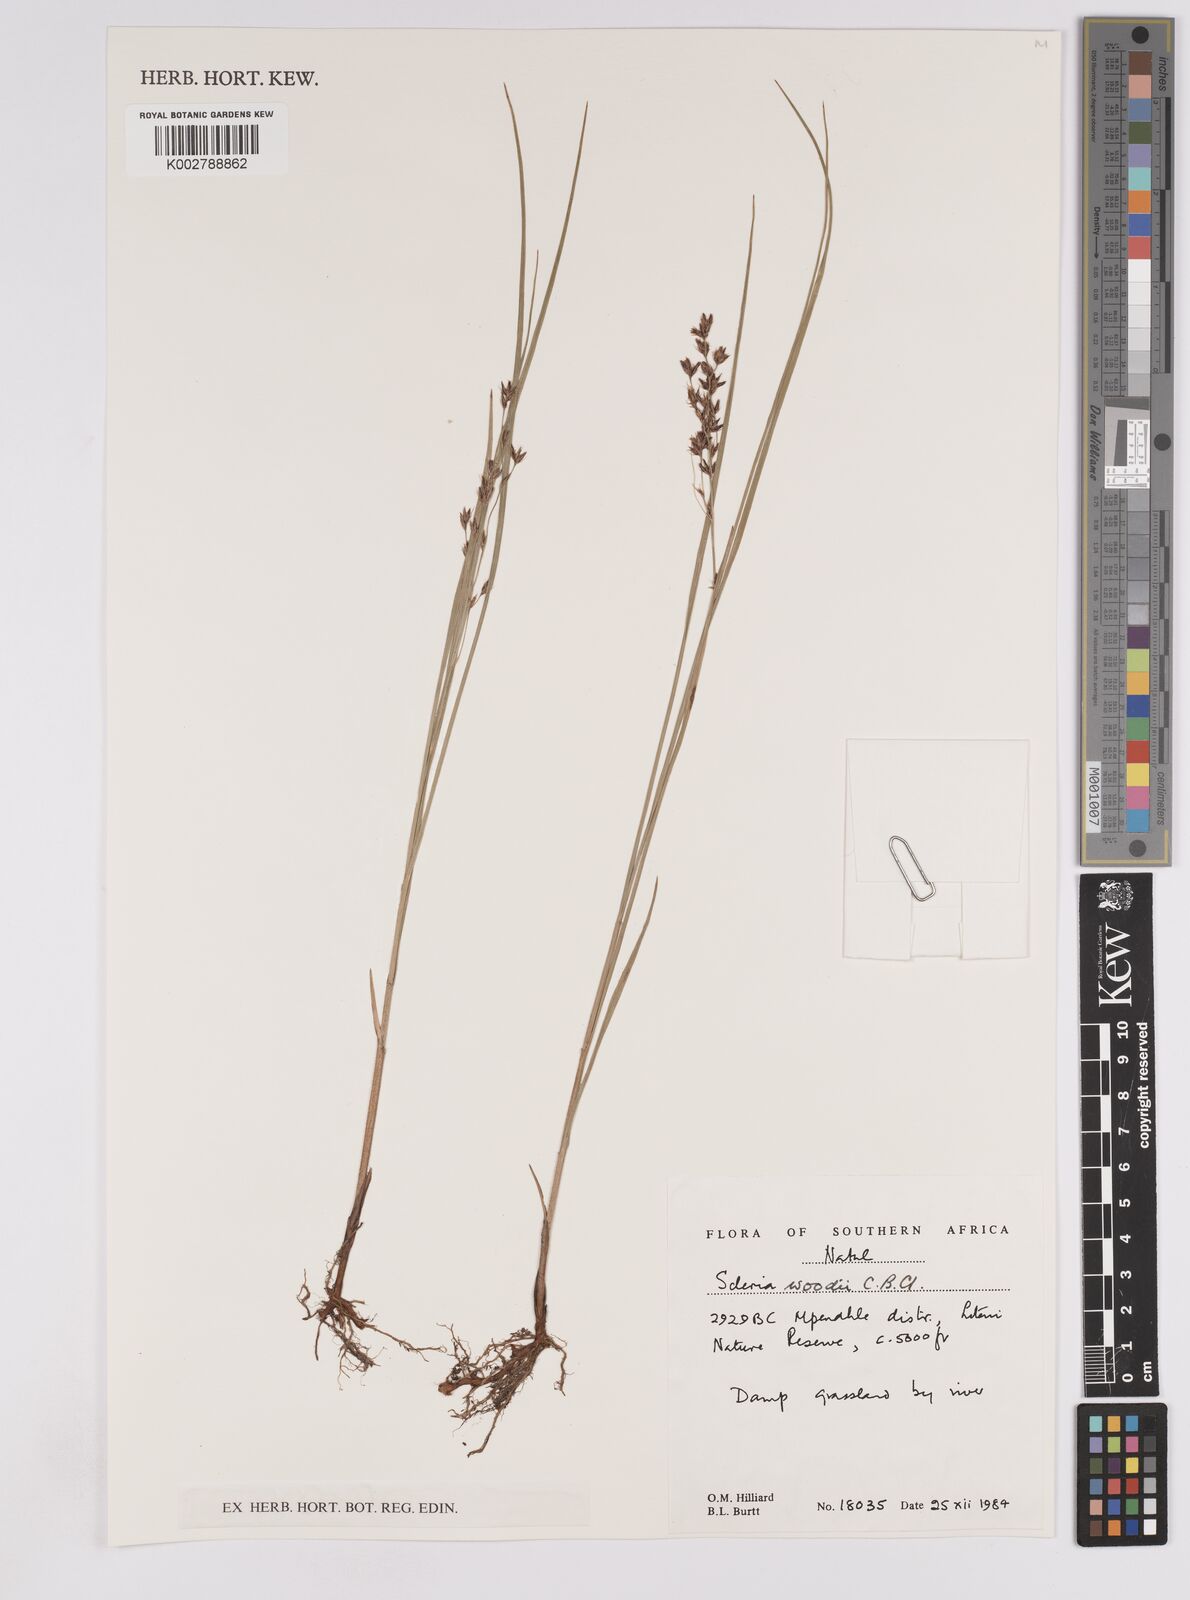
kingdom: Plantae
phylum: Tracheophyta
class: Liliopsida
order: Poales
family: Cyperaceae
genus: Scleria
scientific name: Scleria woodii
